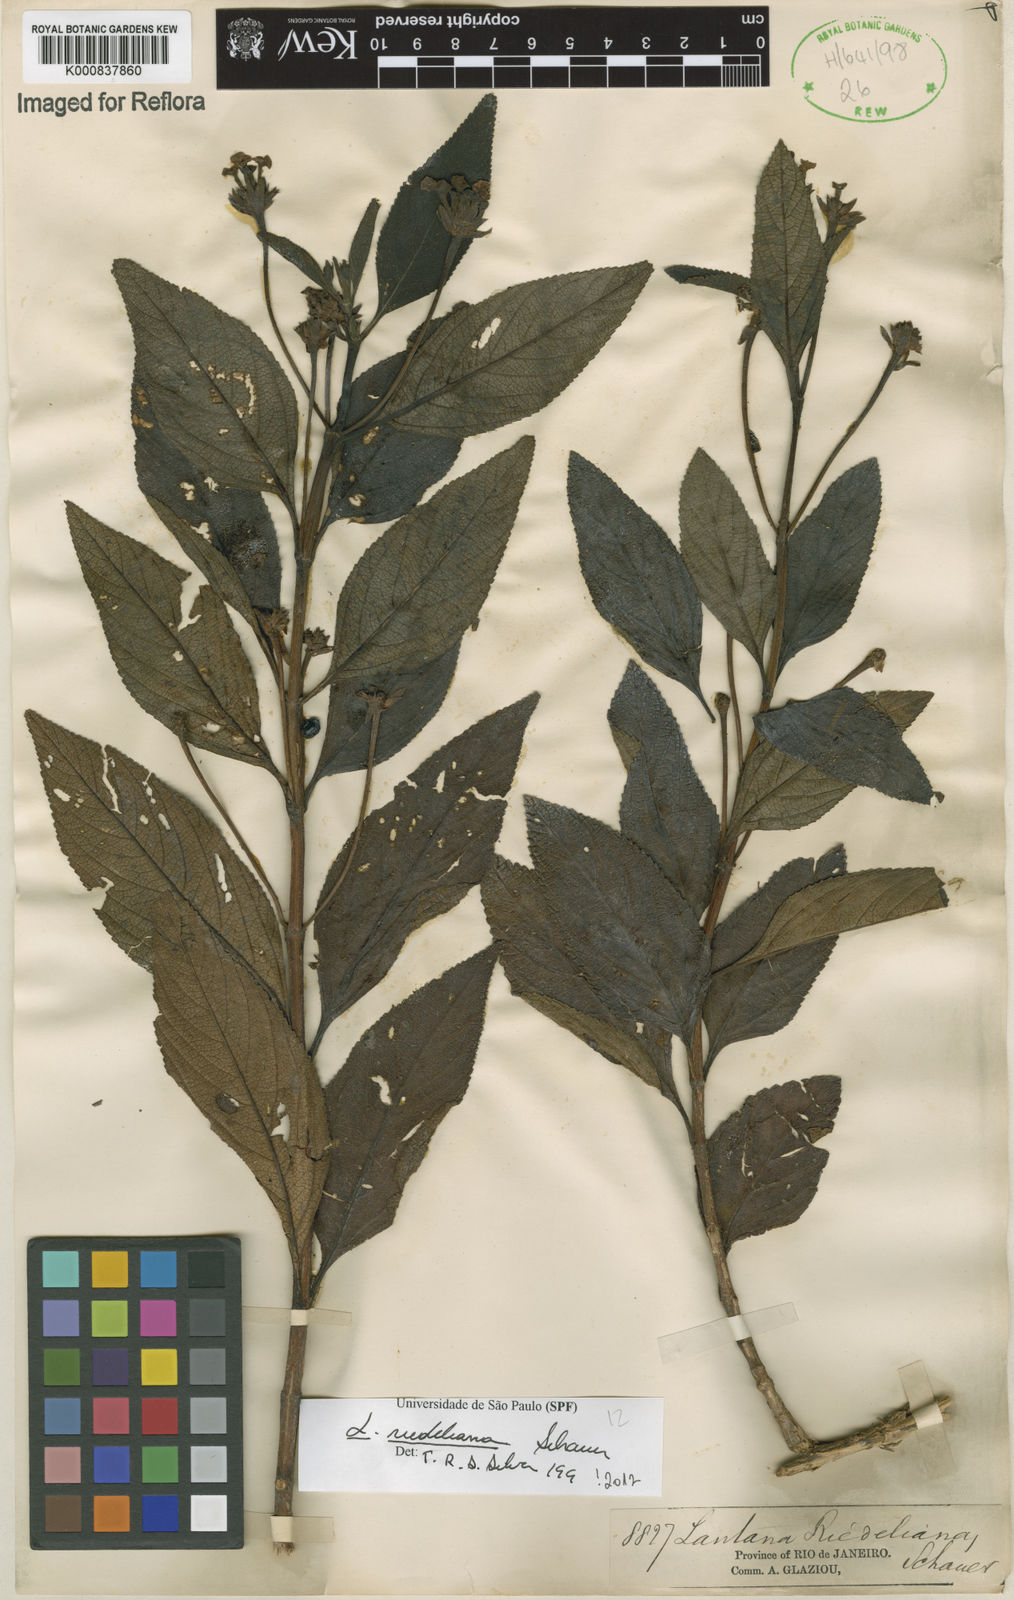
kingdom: Plantae
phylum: Tracheophyta
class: Magnoliopsida
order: Lamiales
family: Verbenaceae
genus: Lantana
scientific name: Lantana cujabensis
